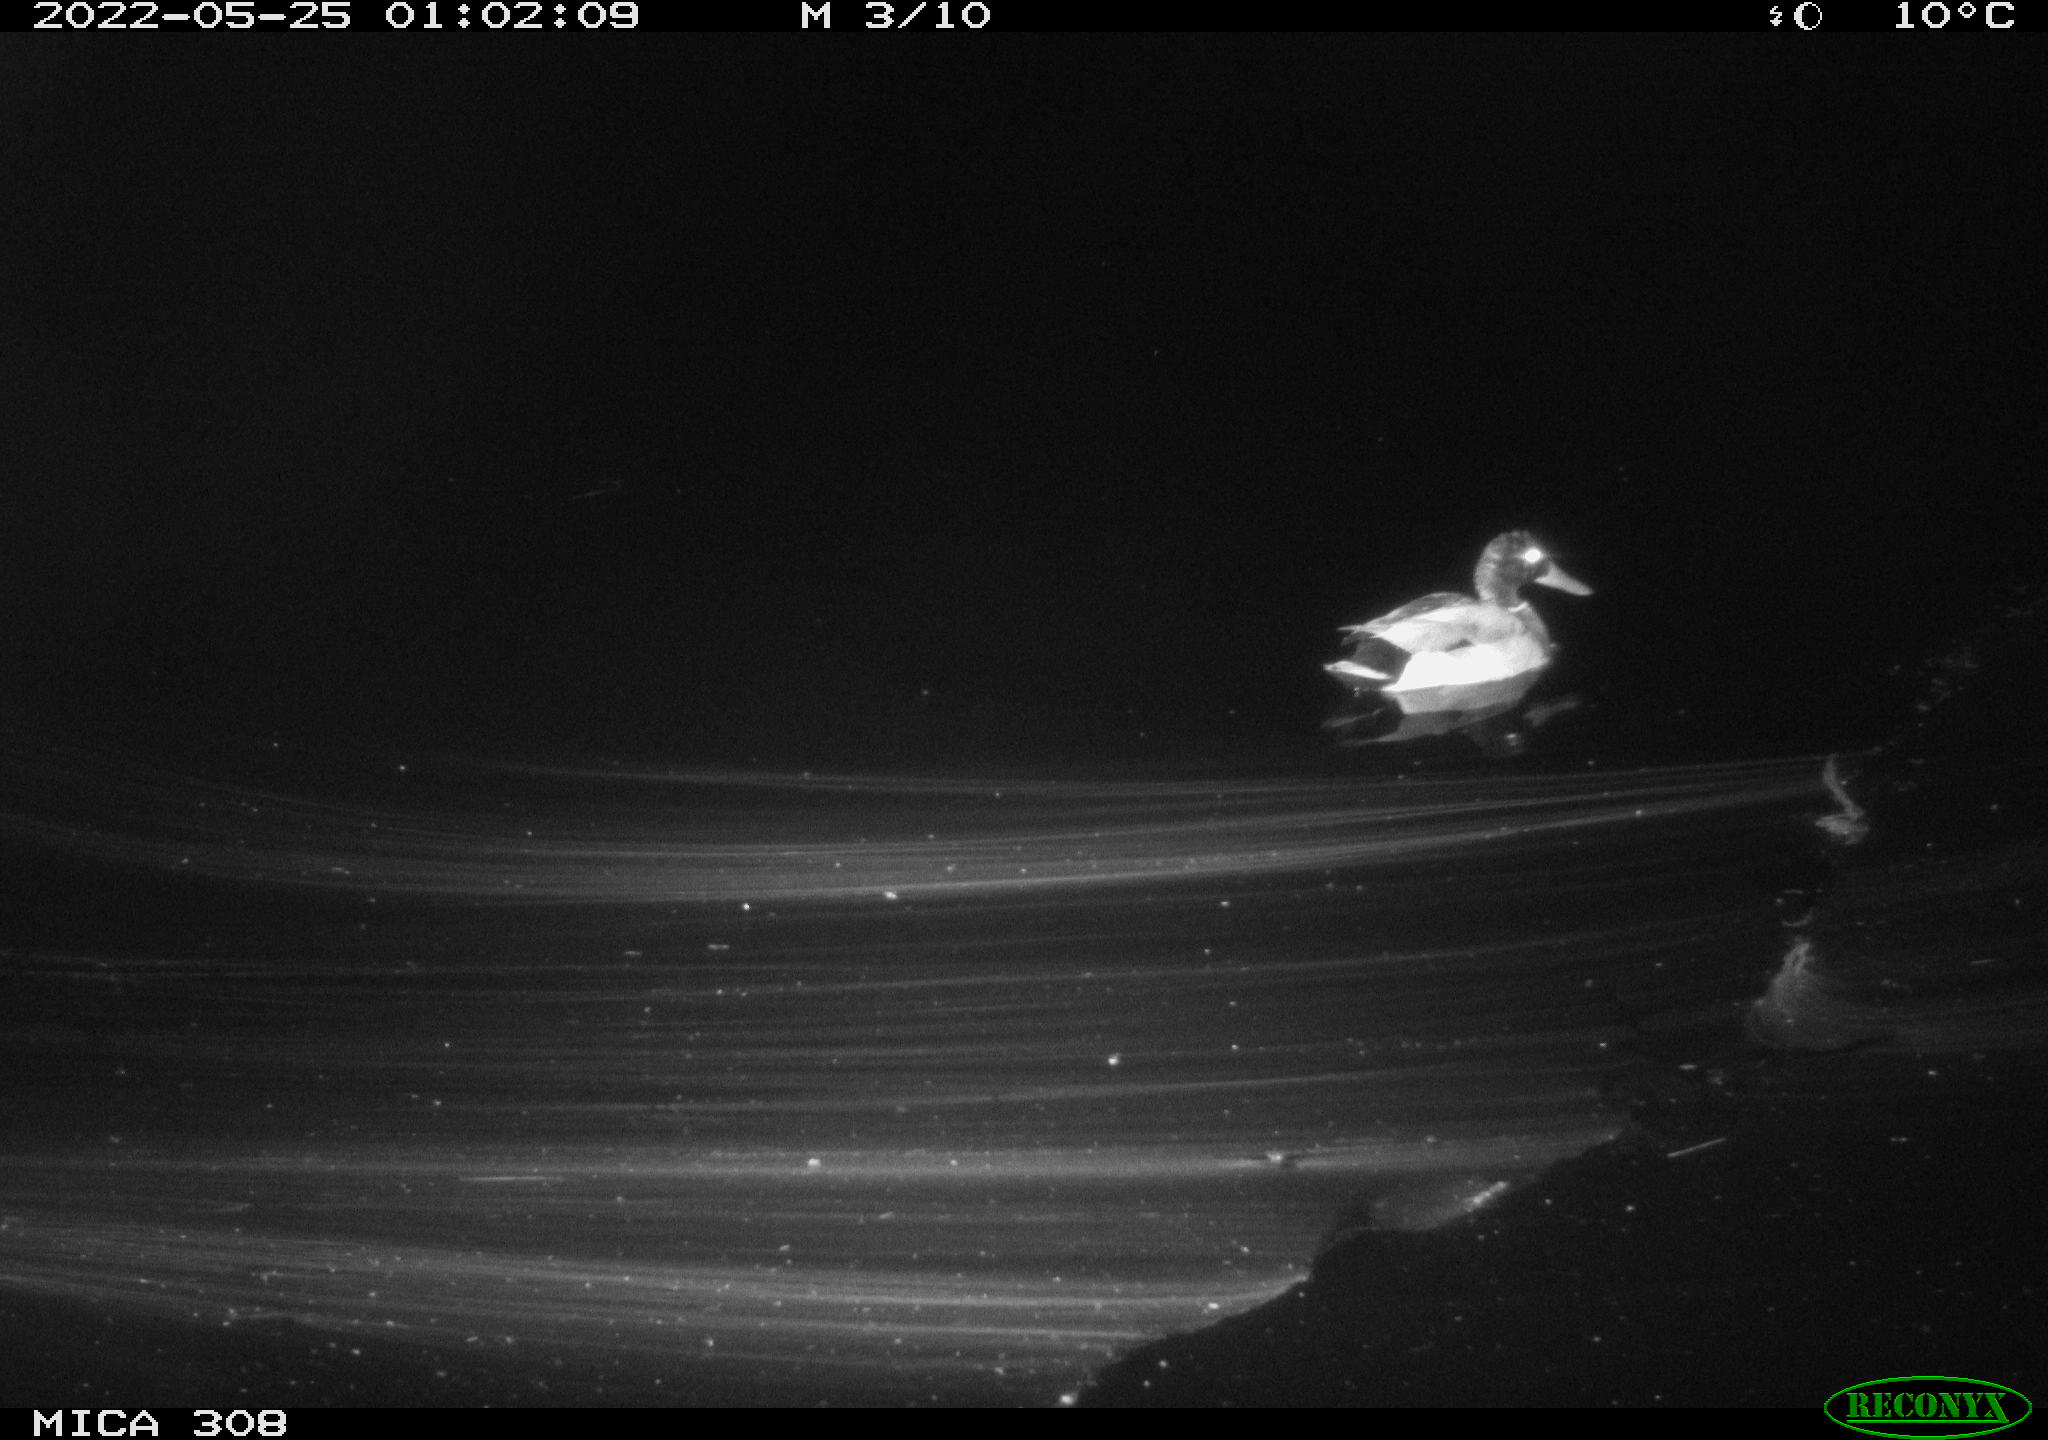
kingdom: Animalia
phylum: Chordata
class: Aves
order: Anseriformes
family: Anatidae
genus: Anas
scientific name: Anas platyrhynchos
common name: Mallard
